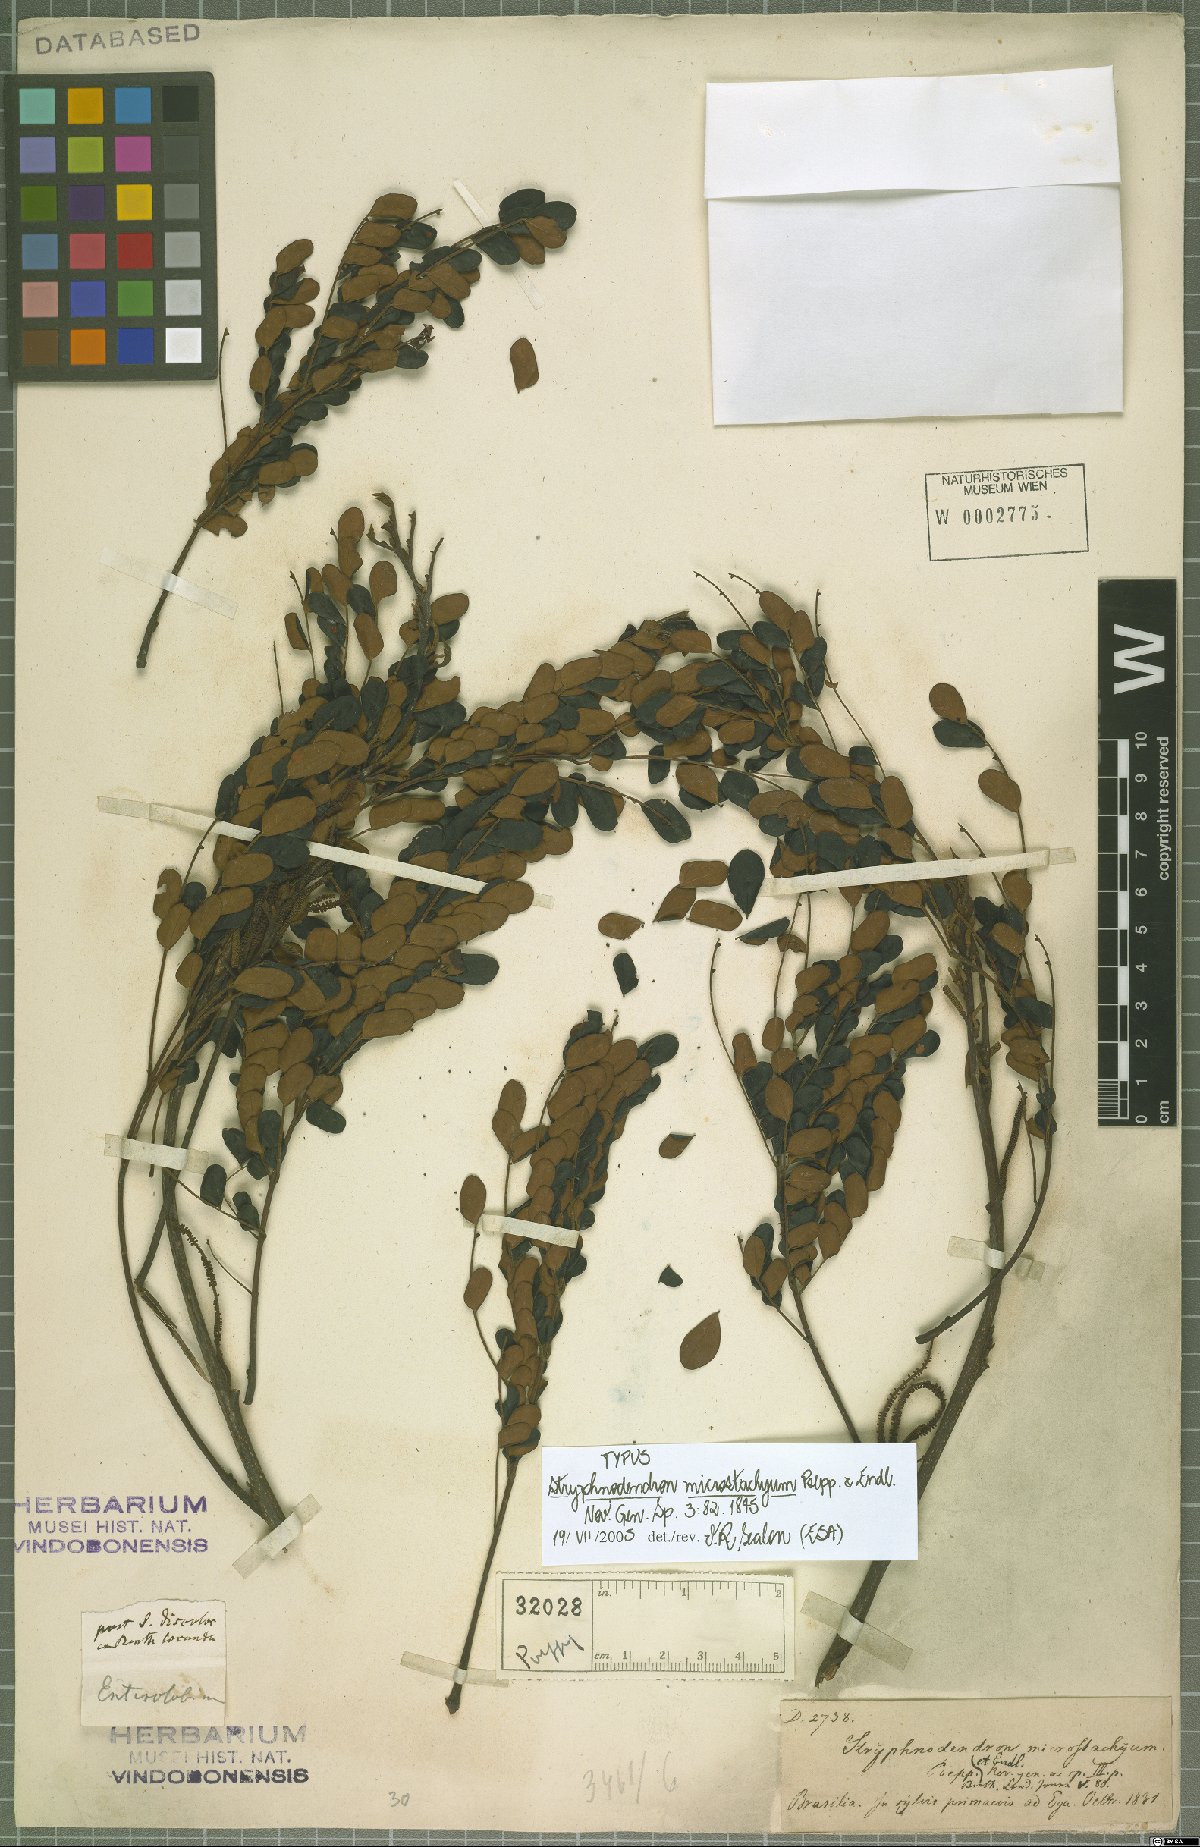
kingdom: Plantae
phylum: Tracheophyta
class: Magnoliopsida
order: Fabales
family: Fabaceae
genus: Stryphnodendron
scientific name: Stryphnodendron microstachyum
